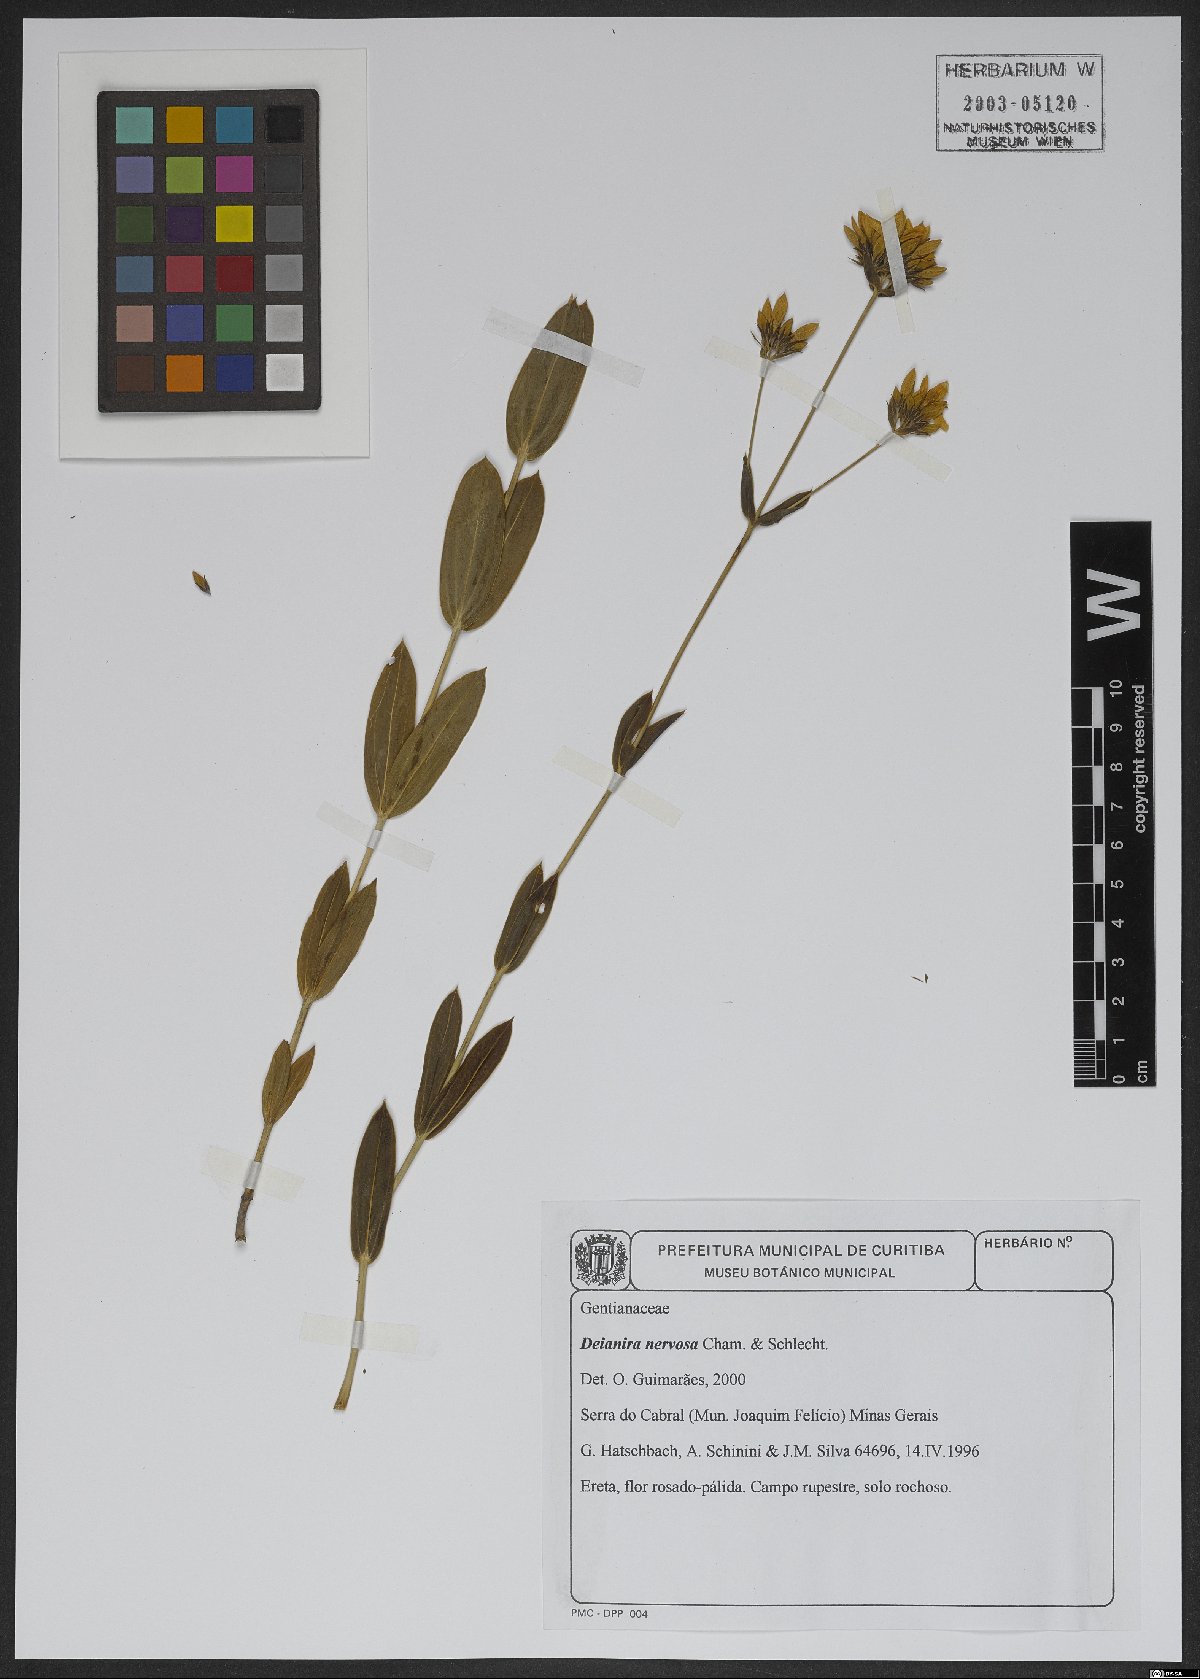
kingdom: Plantae
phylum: Tracheophyta
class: Magnoliopsida
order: Gentianales
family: Gentianaceae
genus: Deianira
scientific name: Deianira nervosa
